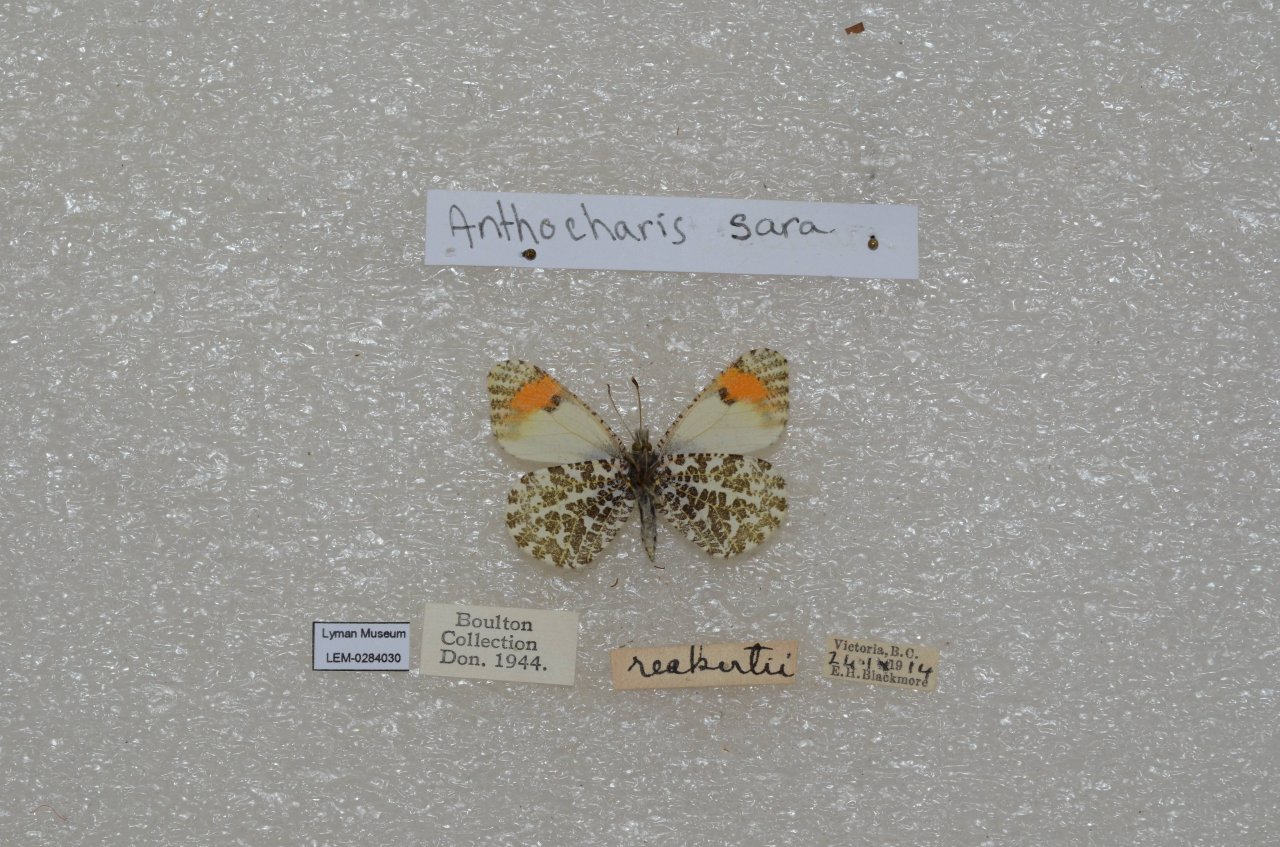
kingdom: Animalia
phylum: Arthropoda
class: Insecta
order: Lepidoptera
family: Pieridae
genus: Anthocharis
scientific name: Anthocharis sara
